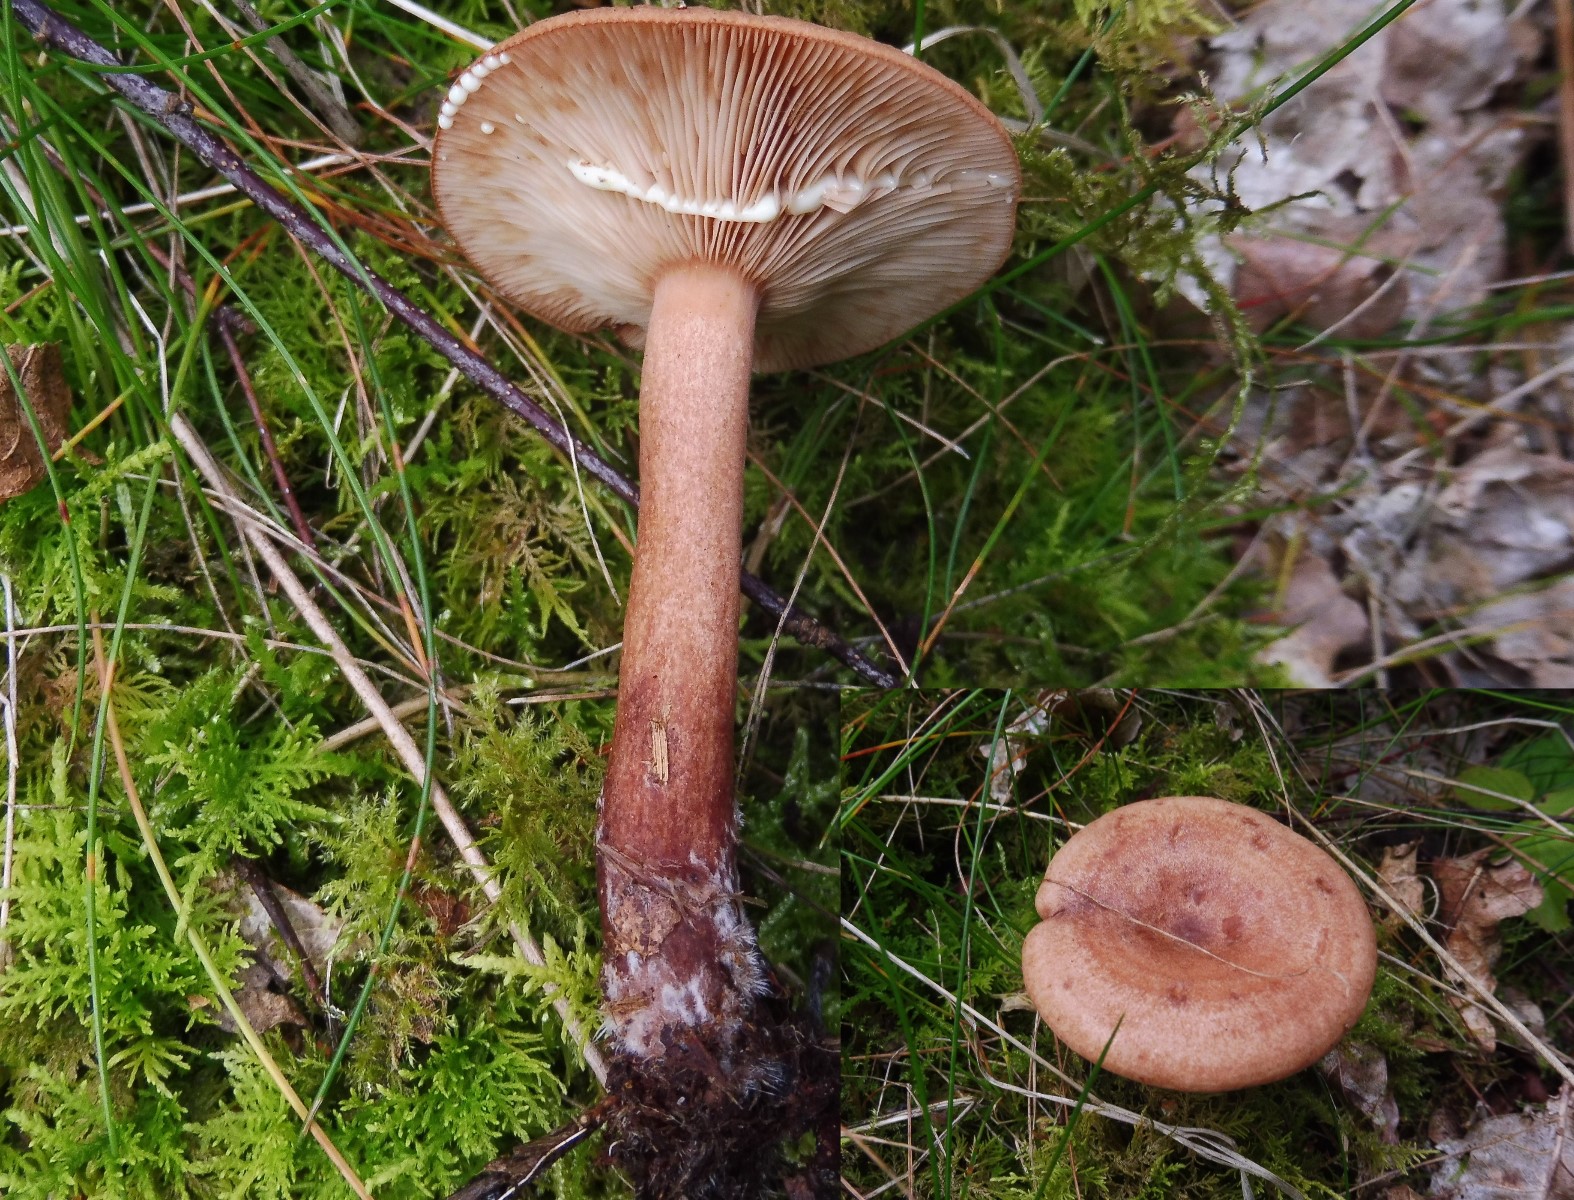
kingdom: Fungi
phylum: Basidiomycota
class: Agaricomycetes
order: Russulales
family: Russulaceae
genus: Lactarius
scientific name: Lactarius quietus
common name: ege-mælkehat
